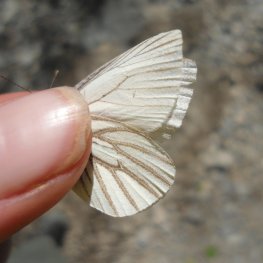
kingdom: Animalia
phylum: Arthropoda
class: Insecta
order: Lepidoptera
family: Pieridae
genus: Pieris
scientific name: Pieris oleracea
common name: Mustard White
